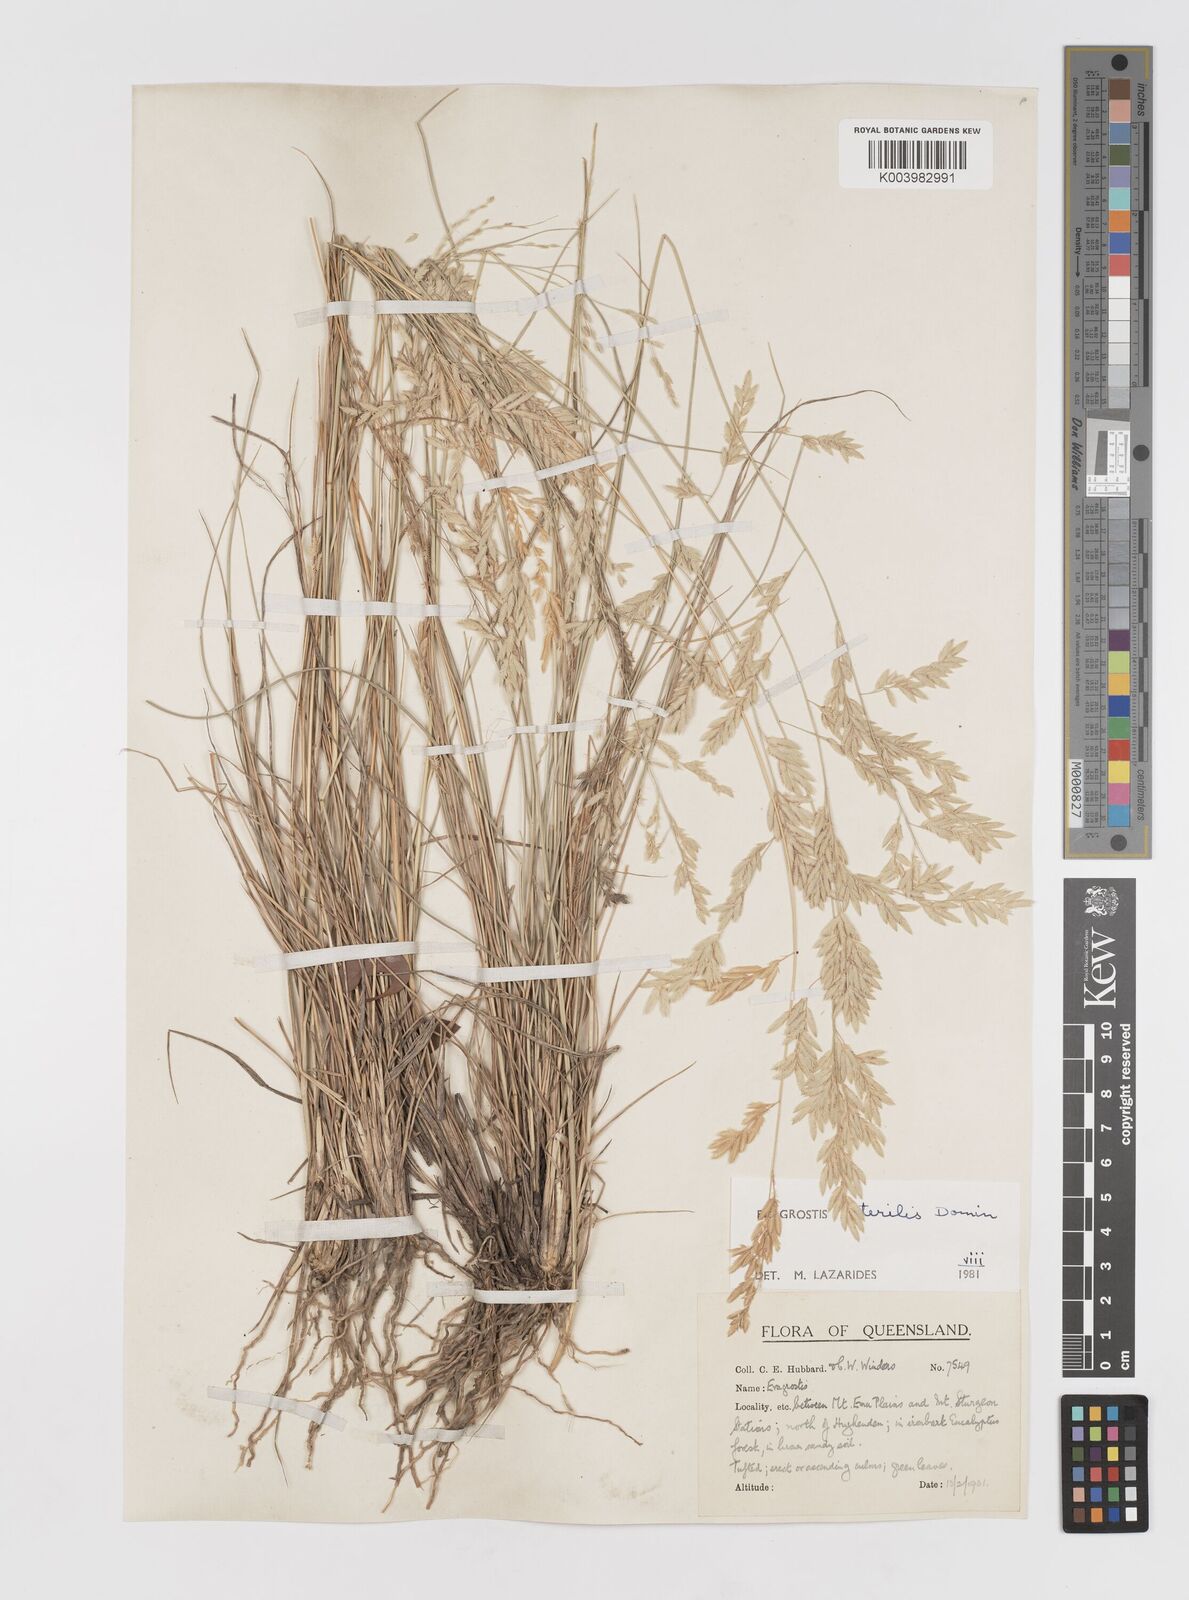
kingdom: Plantae
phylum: Tracheophyta
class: Liliopsida
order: Poales
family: Poaceae
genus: Eragrostis
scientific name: Eragrostis sterilis
